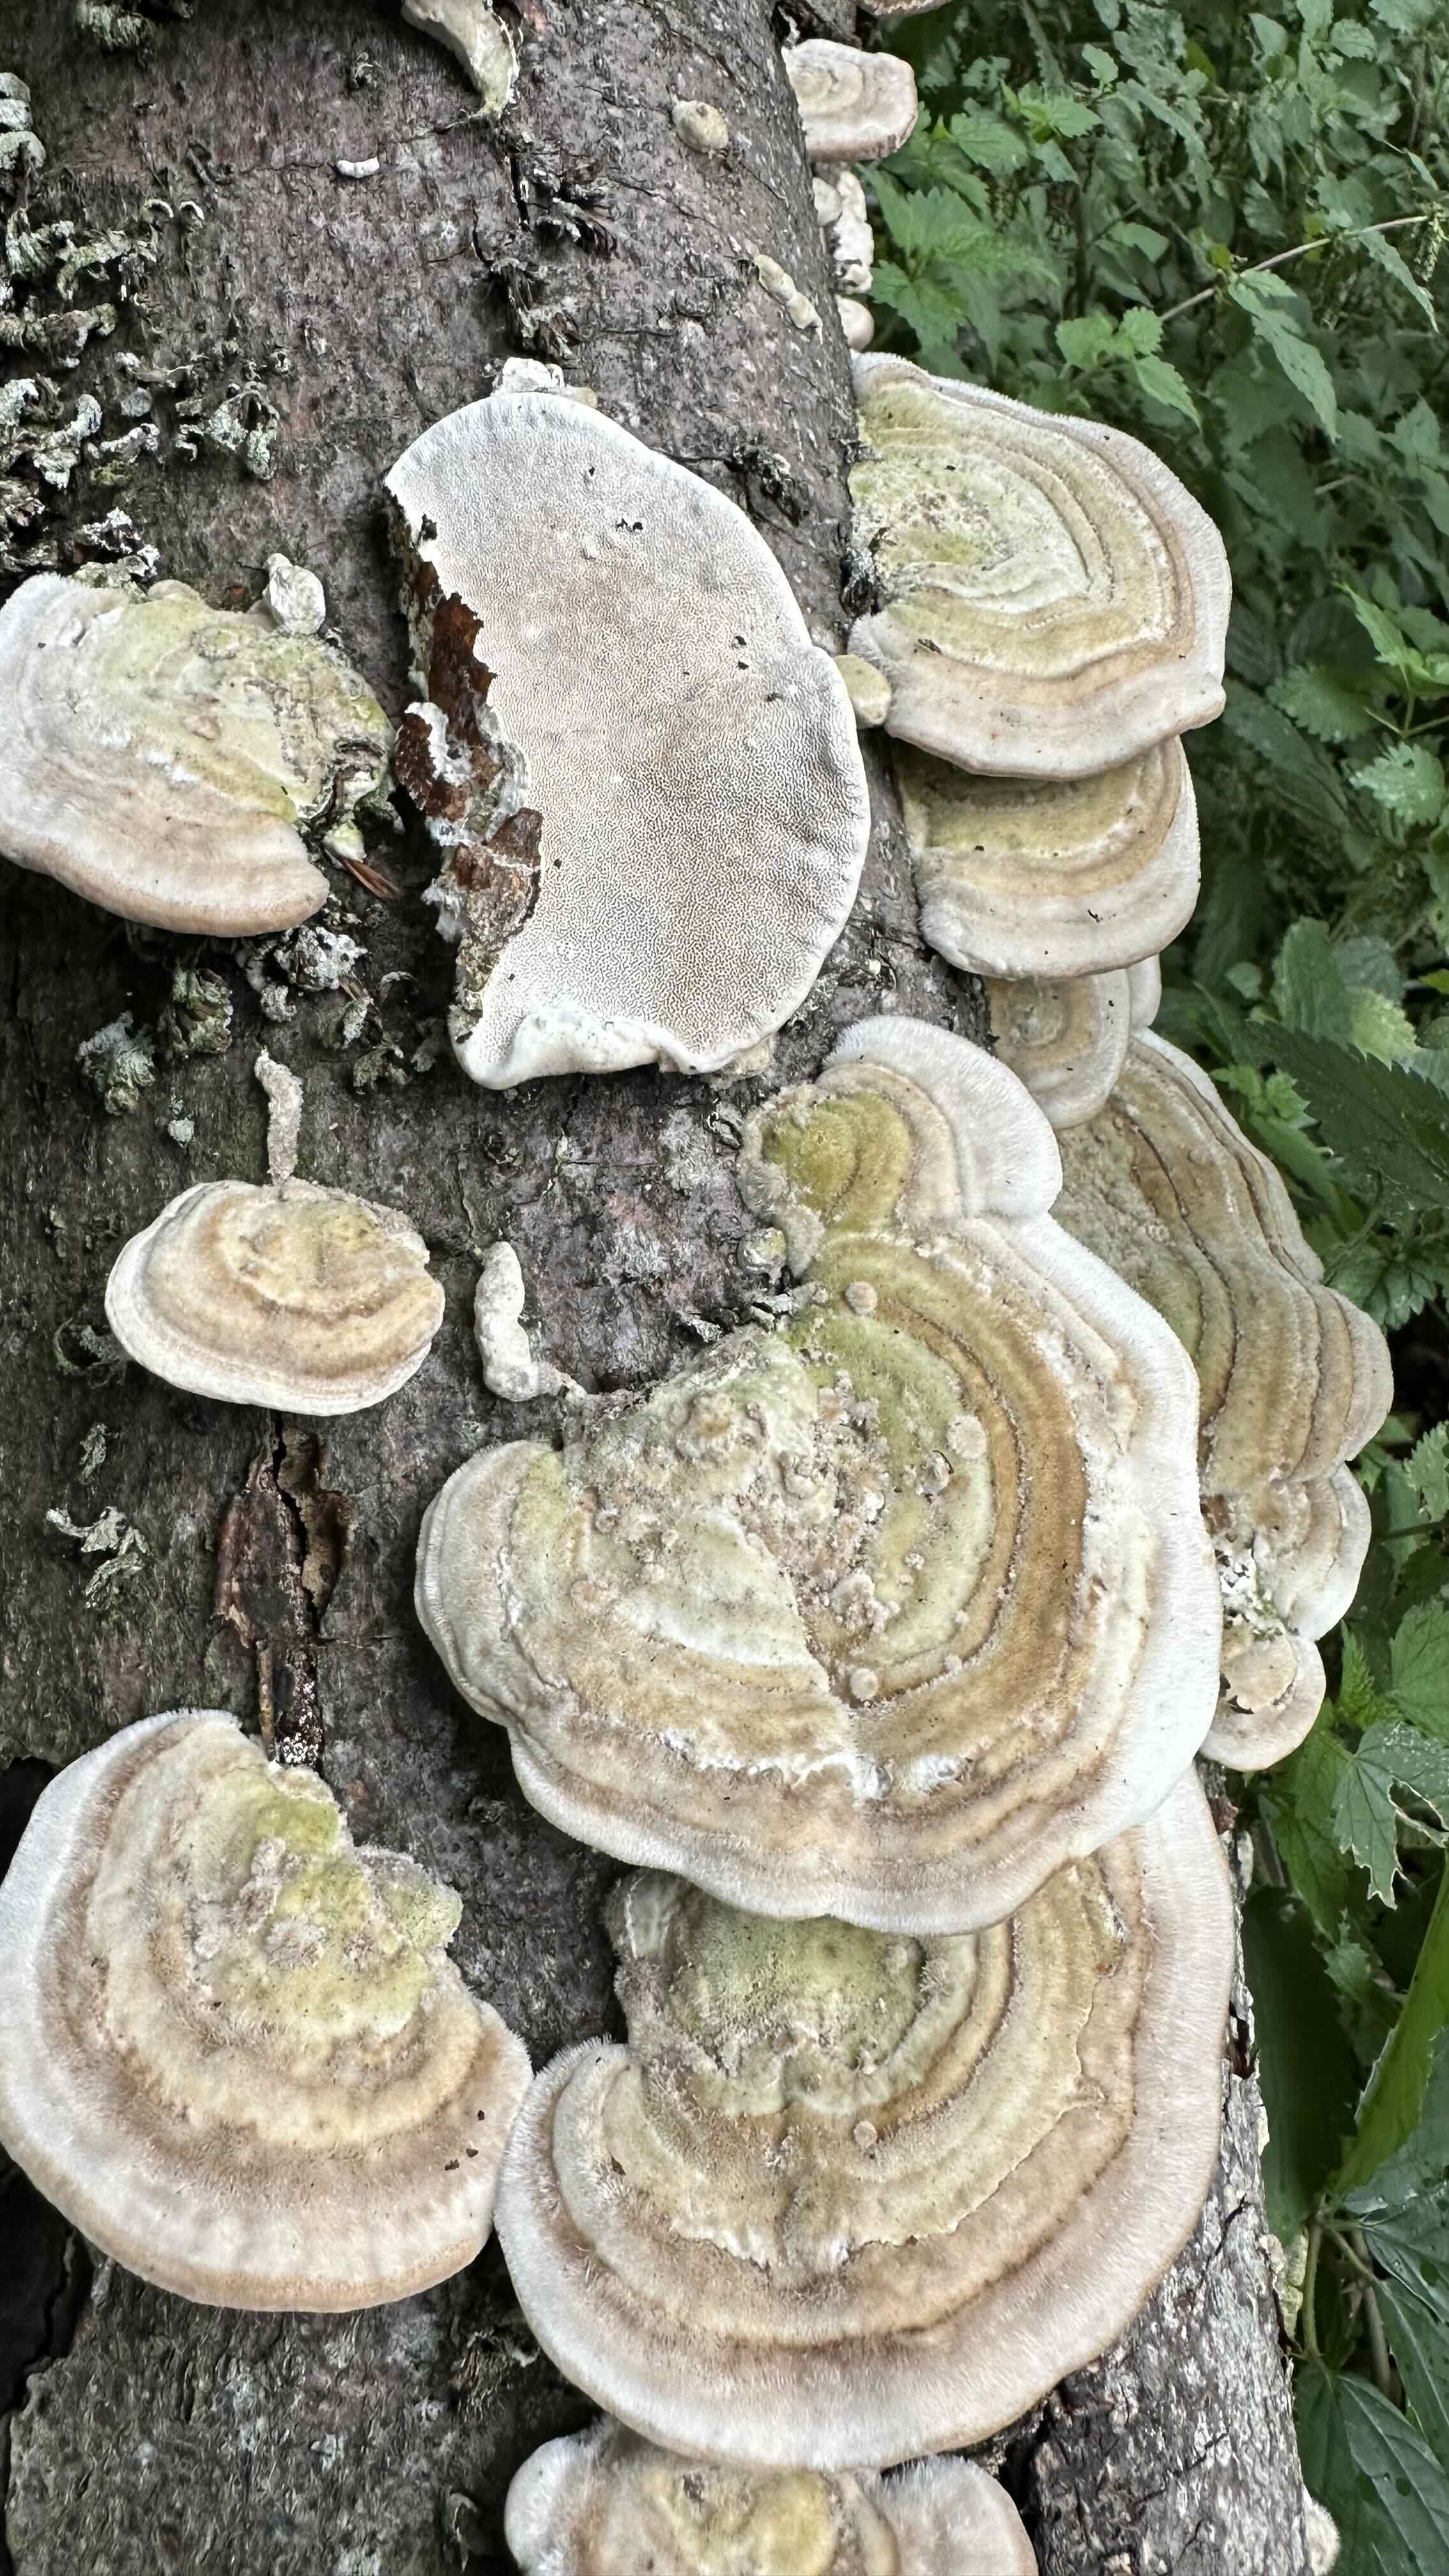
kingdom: Fungi
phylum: Basidiomycota
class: Agaricomycetes
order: Polyporales
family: Polyporaceae
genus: Trametes
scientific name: Trametes hirsuta
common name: håret læderporesvamp
